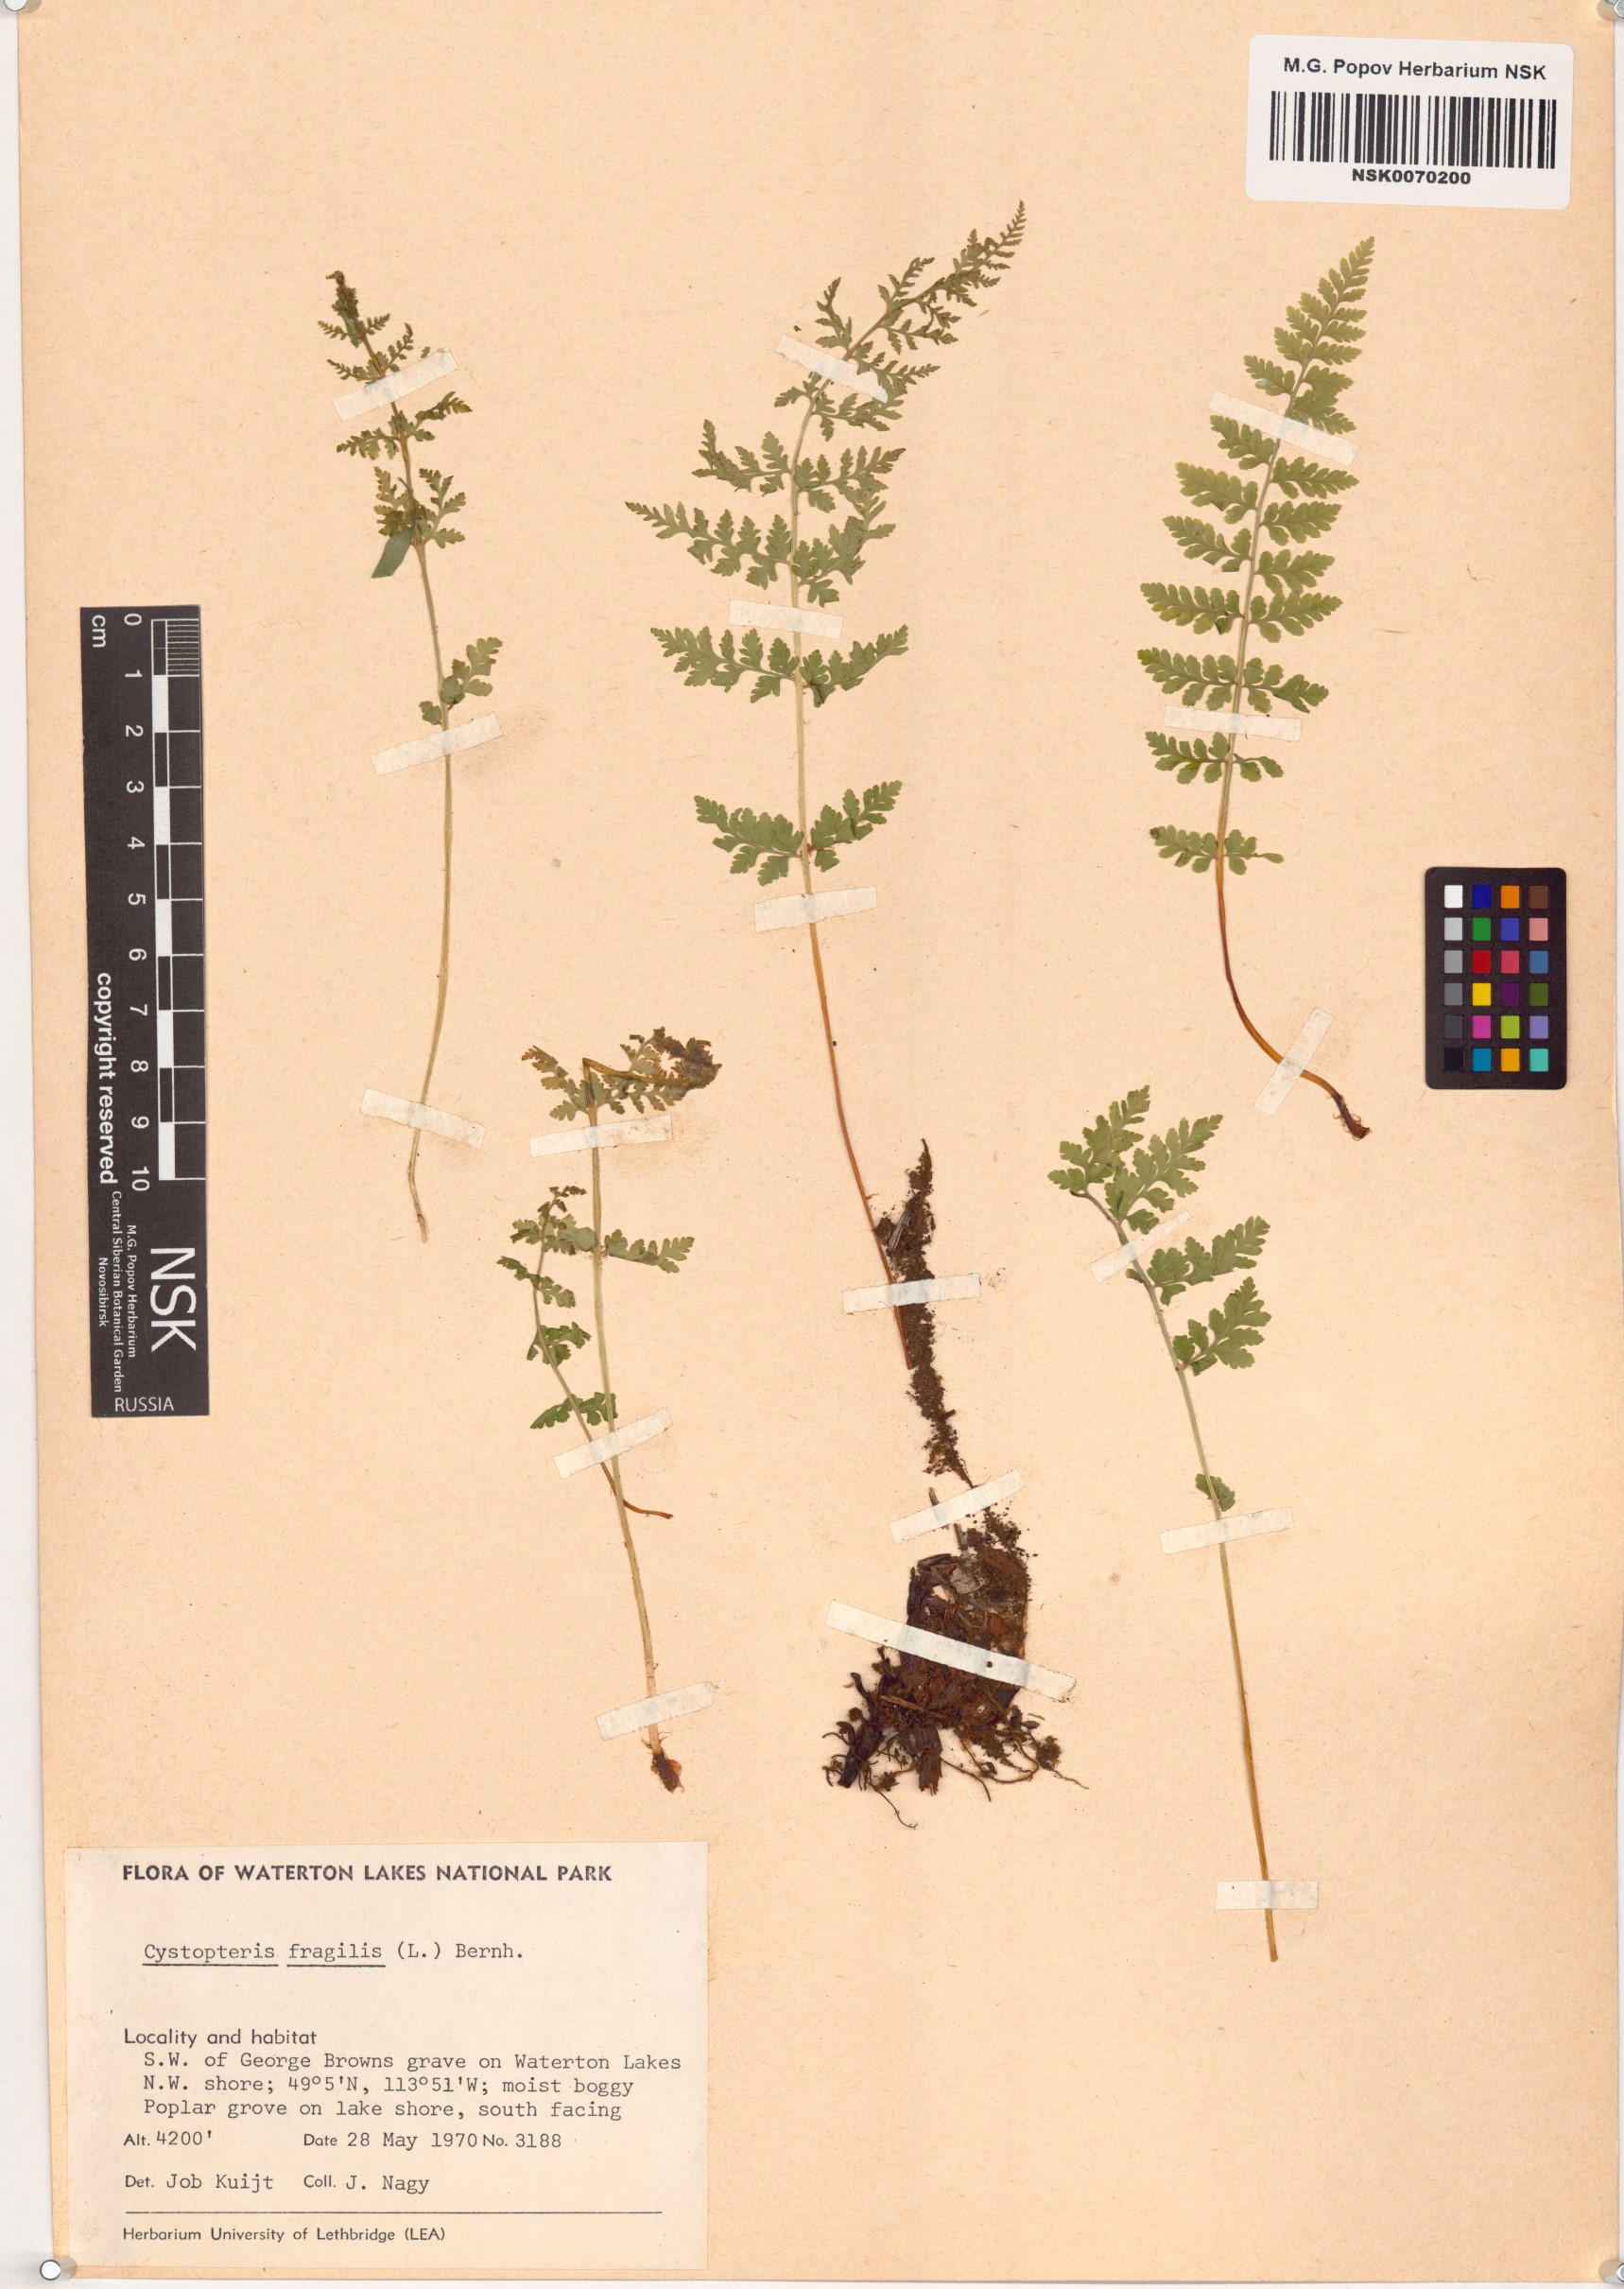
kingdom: Plantae
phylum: Tracheophyta
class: Polypodiopsida
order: Polypodiales
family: Cystopteridaceae
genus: Cystopteris
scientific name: Cystopteris fragilis
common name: Brittle bladder fern
